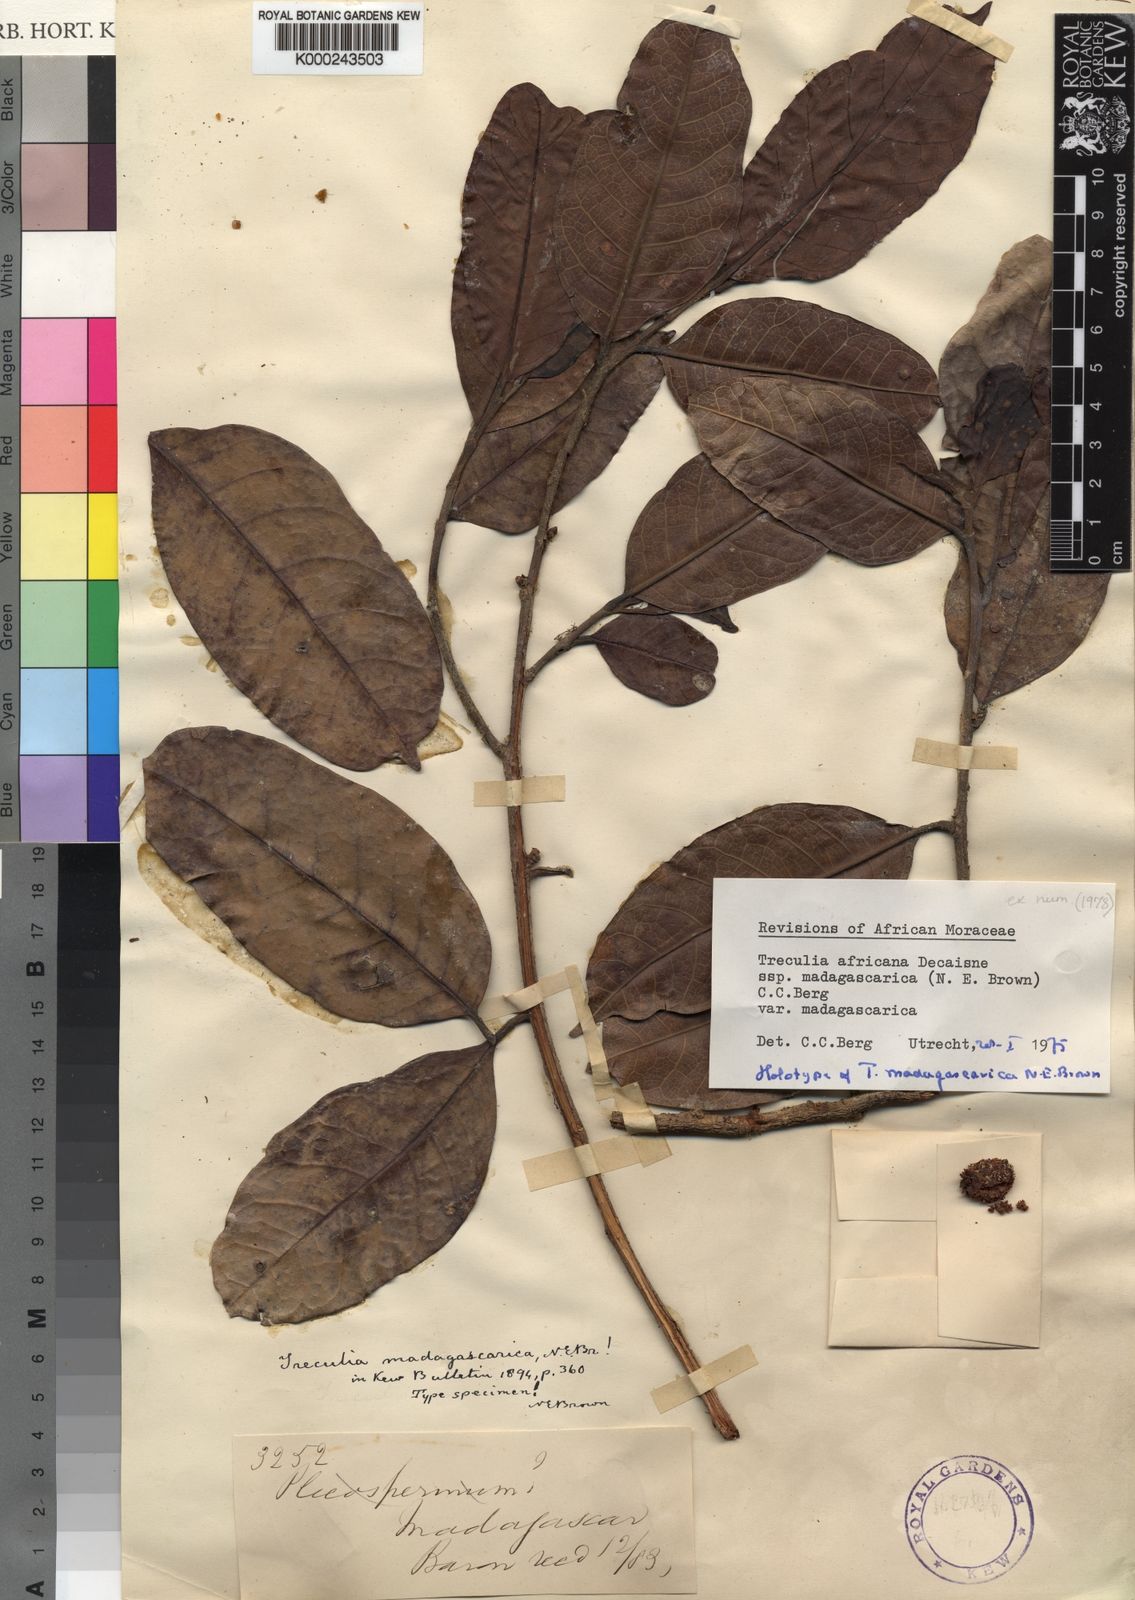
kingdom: Plantae
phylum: Tracheophyta
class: Magnoliopsida
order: Rosales
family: Moraceae
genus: Treculia
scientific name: Treculia madagascarica
